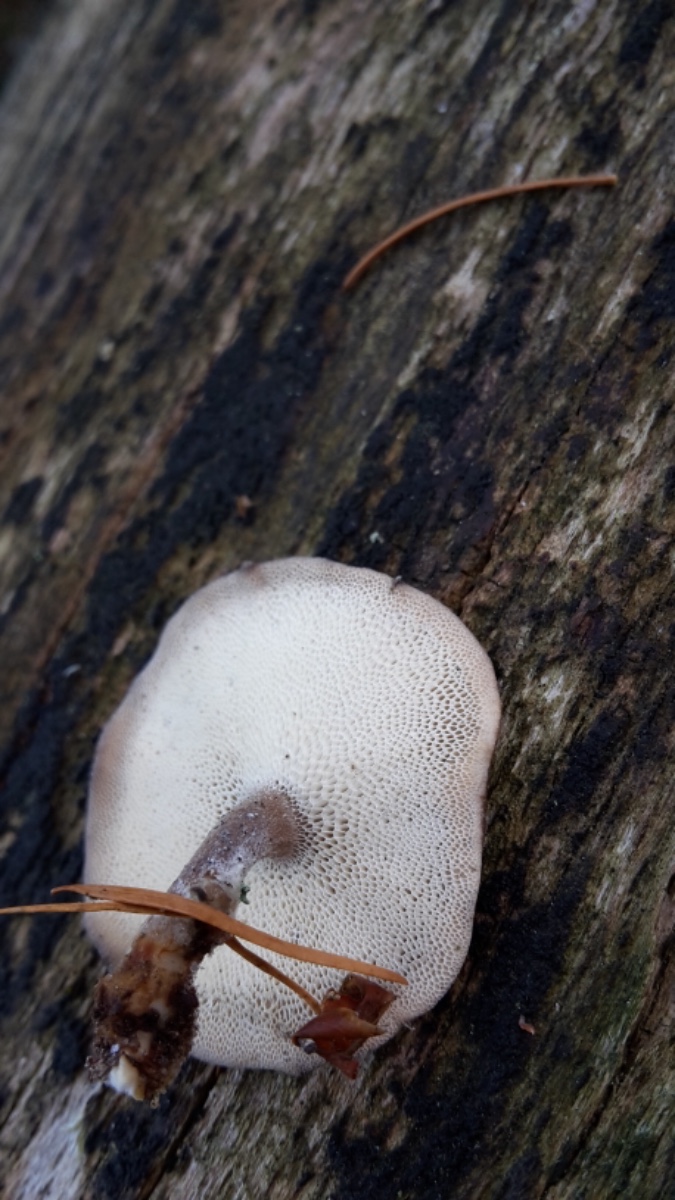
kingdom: Fungi
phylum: Basidiomycota
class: Agaricomycetes
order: Polyporales
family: Polyporaceae
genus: Lentinus
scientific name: Lentinus brumalis
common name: vinter-stilkporesvamp
